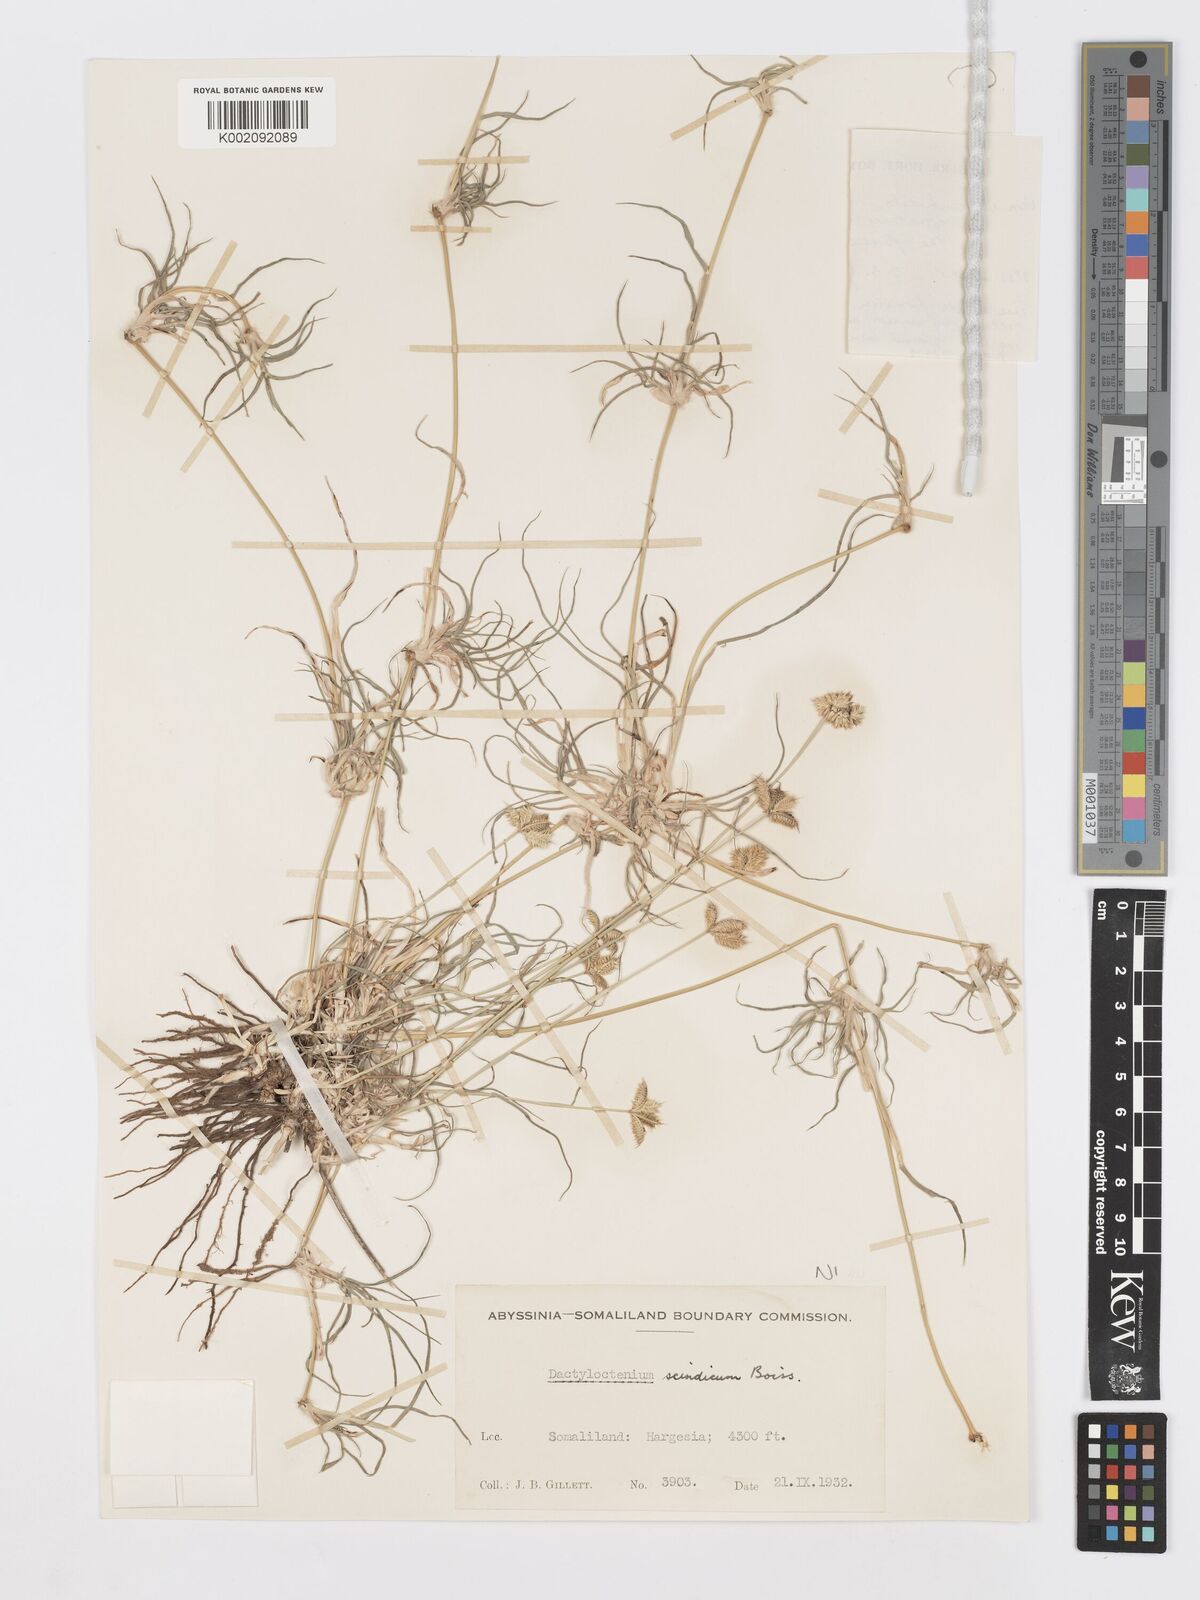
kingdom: Plantae
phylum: Tracheophyta
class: Liliopsida
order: Poales
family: Poaceae
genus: Dactyloctenium
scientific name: Dactyloctenium scindicum
